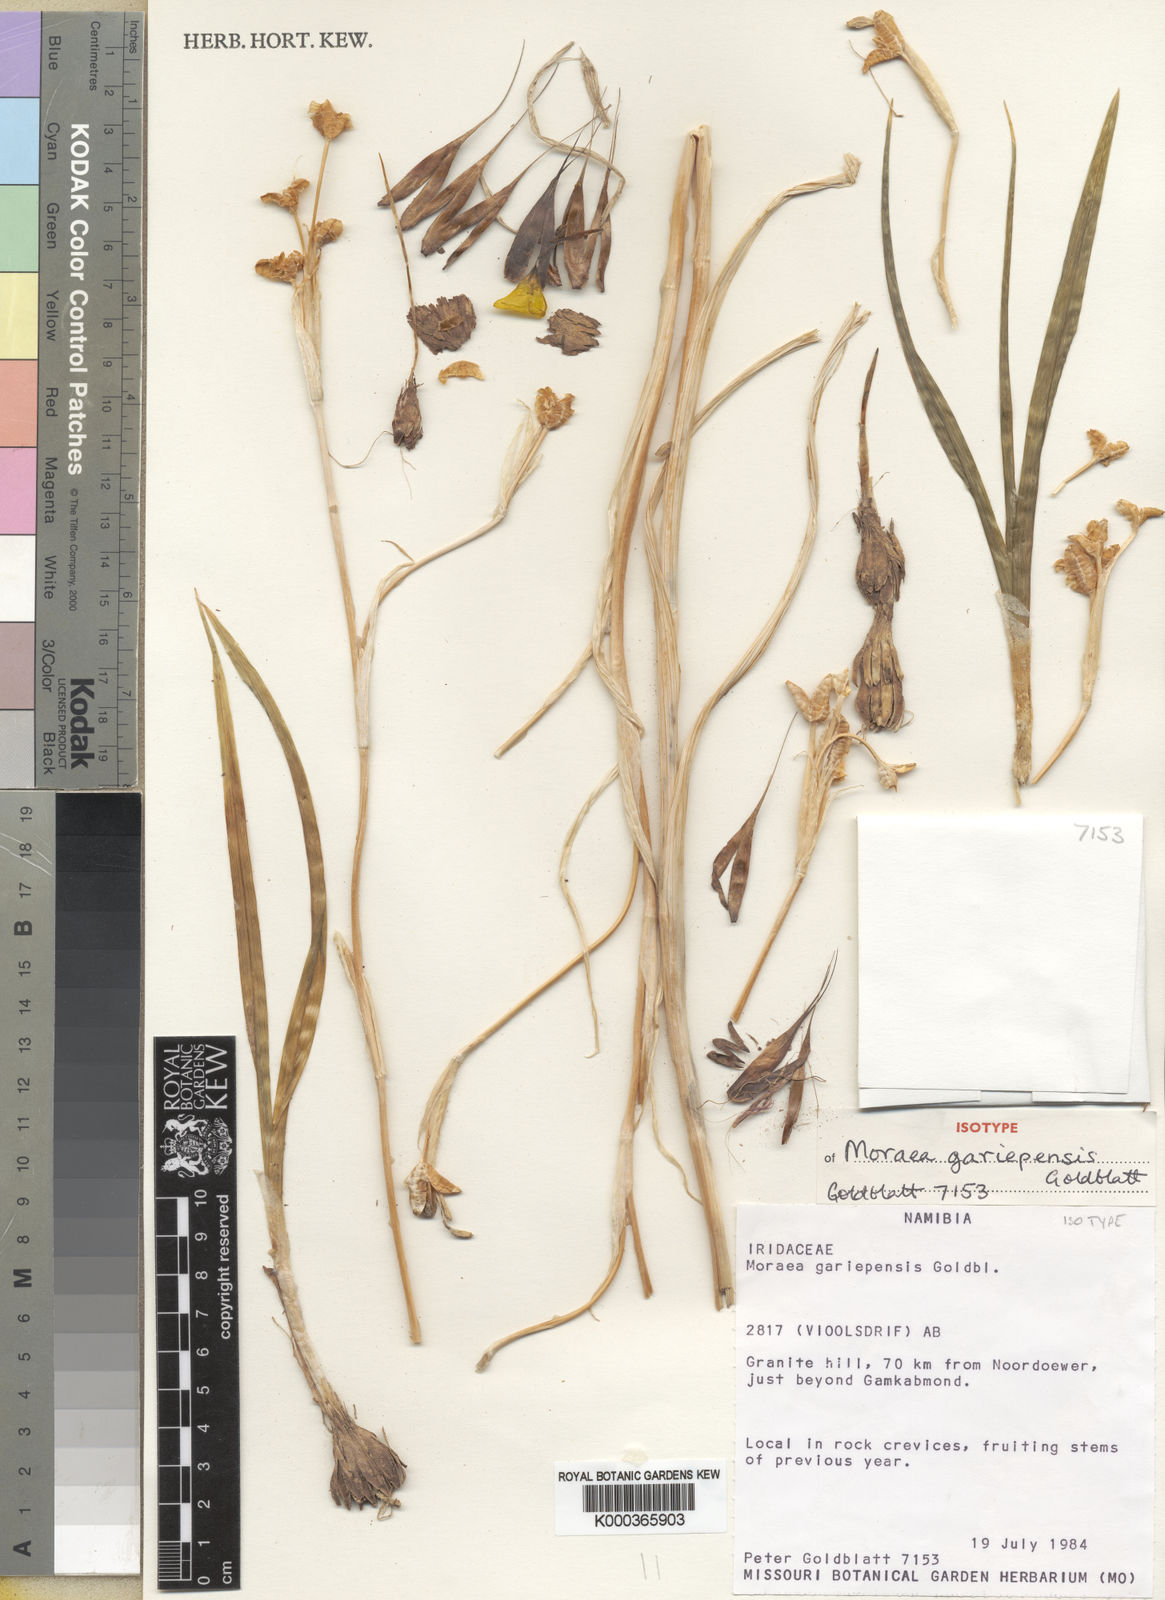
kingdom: Plantae
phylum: Tracheophyta
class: Liliopsida
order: Asparagales
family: Iridaceae
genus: Moraea
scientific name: Moraea
